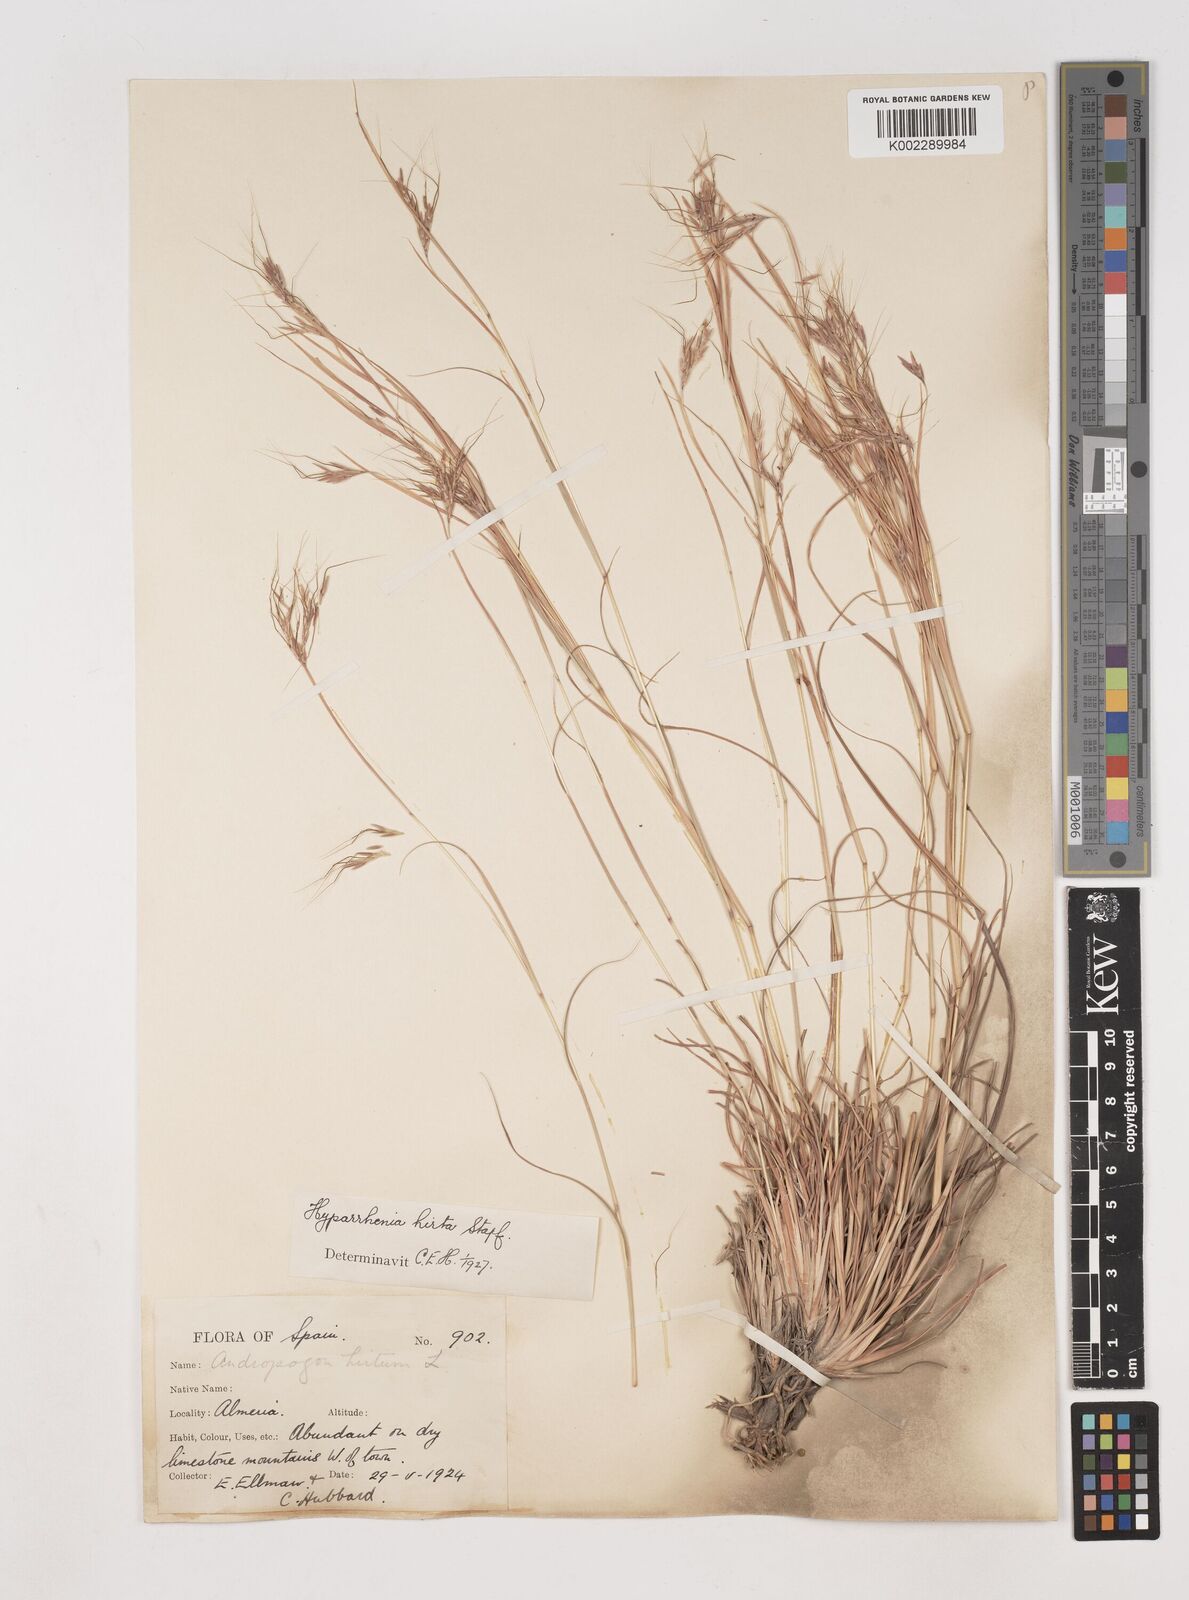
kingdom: Plantae
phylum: Tracheophyta
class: Liliopsida
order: Poales
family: Poaceae
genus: Hyparrhenia
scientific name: Hyparrhenia hirta
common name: Thatching grass
